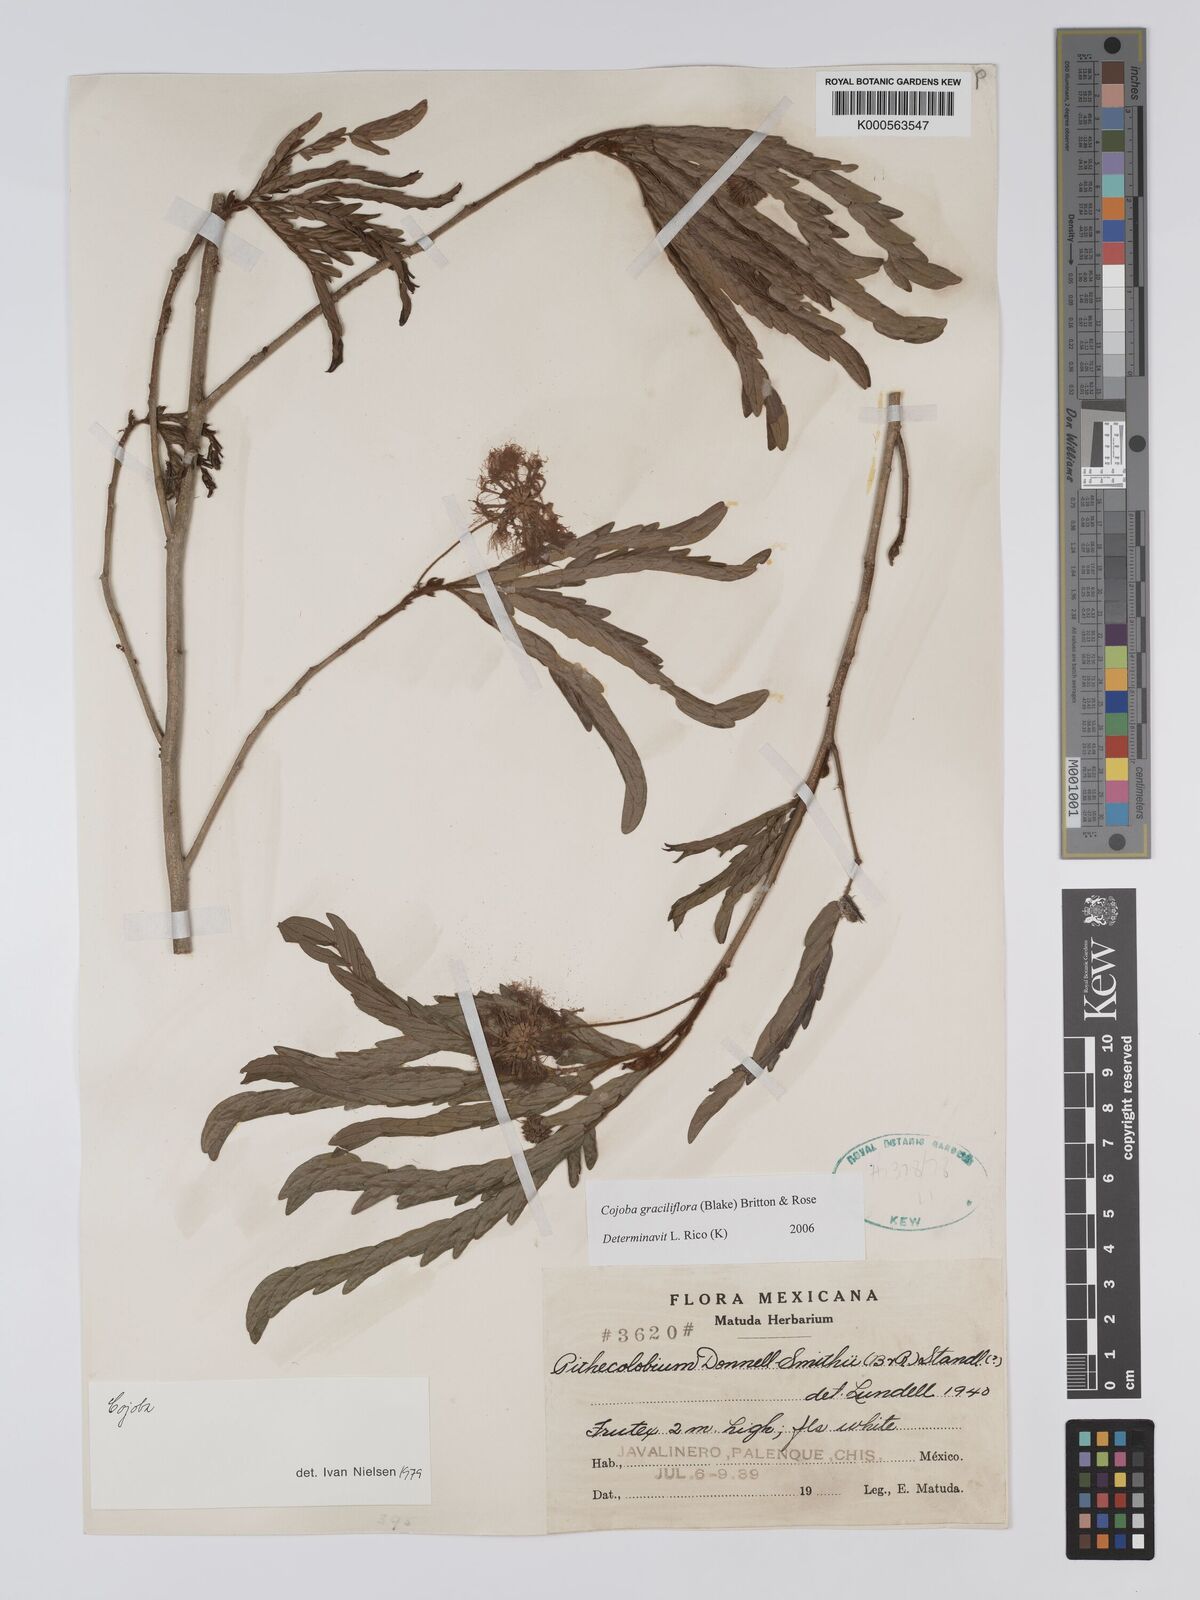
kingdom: Plantae
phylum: Tracheophyta
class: Magnoliopsida
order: Fabales
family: Fabaceae
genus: Cojoba
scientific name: Cojoba graciliflora
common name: Guadeloupe blackbead
